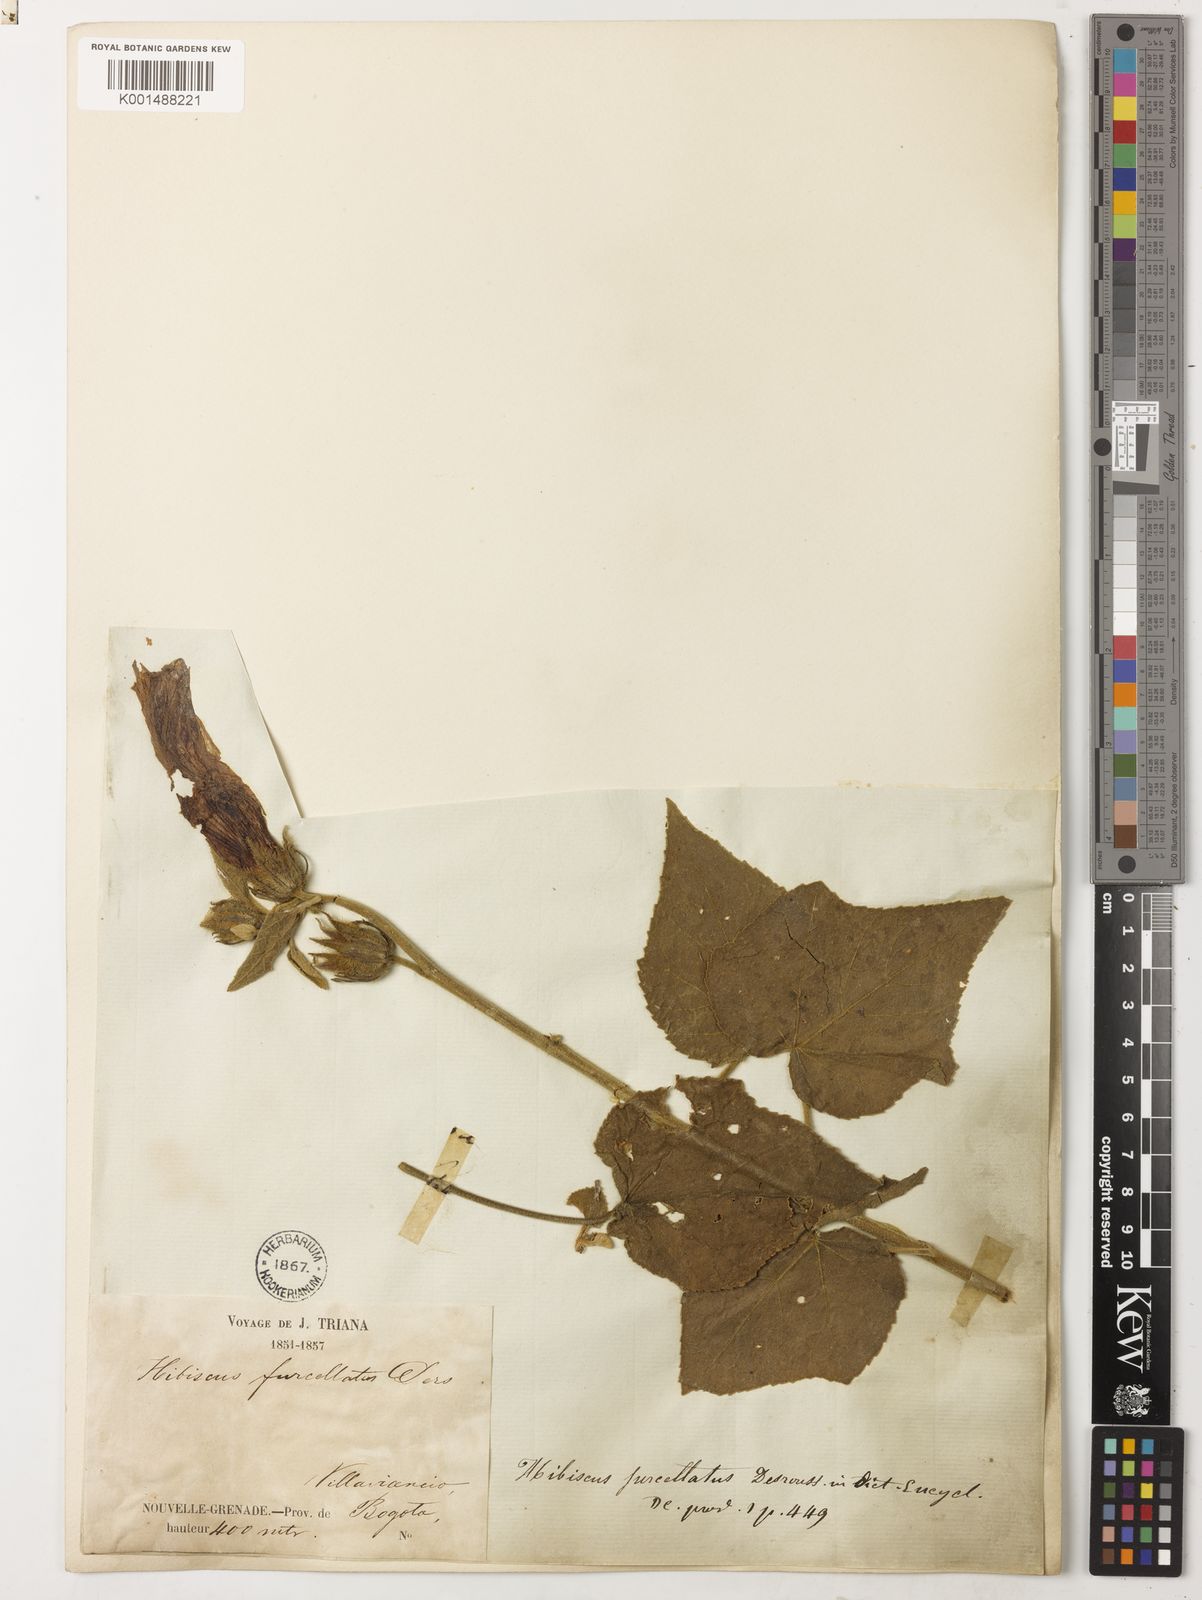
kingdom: Plantae
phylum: Tracheophyta
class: Magnoliopsida
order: Malvales
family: Malvaceae
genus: Hibiscus
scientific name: Hibiscus furcellatus
